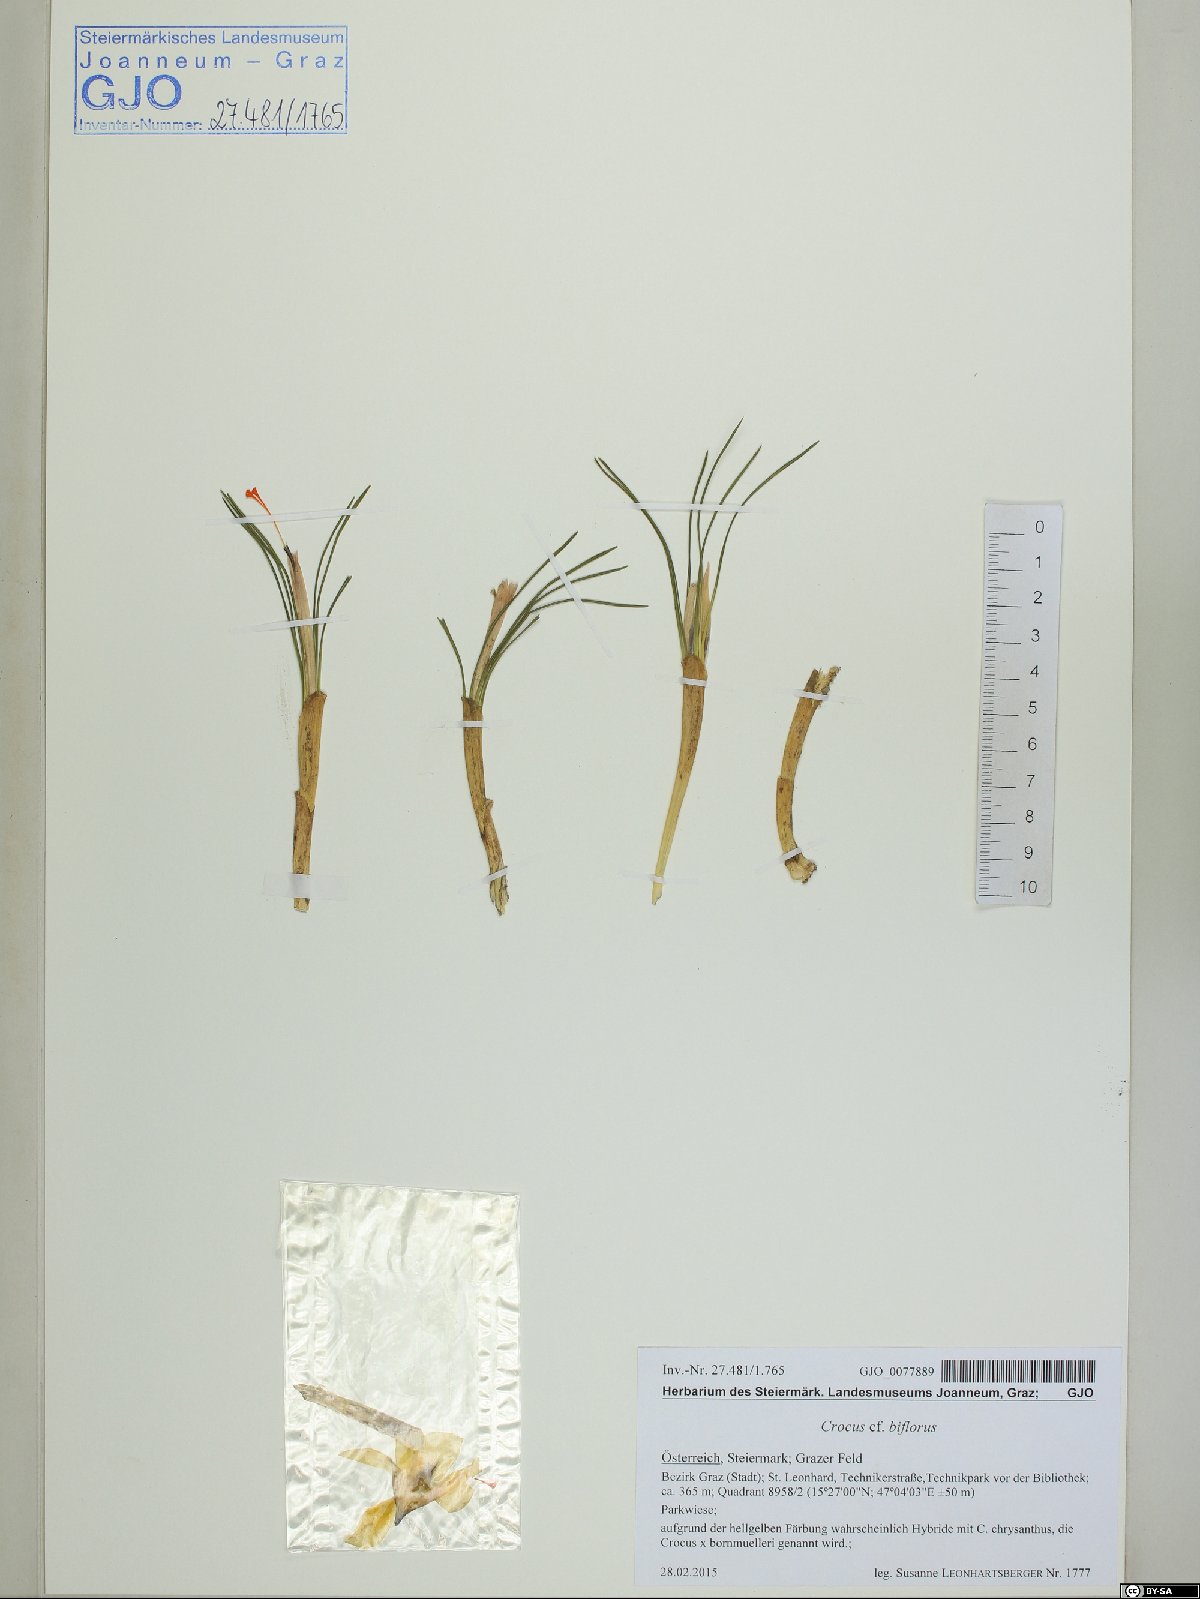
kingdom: Plantae
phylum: Tracheophyta
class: Liliopsida
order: Asparagales
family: Iridaceae
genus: Crocus
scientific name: Crocus biflorus
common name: Silvery crocus
